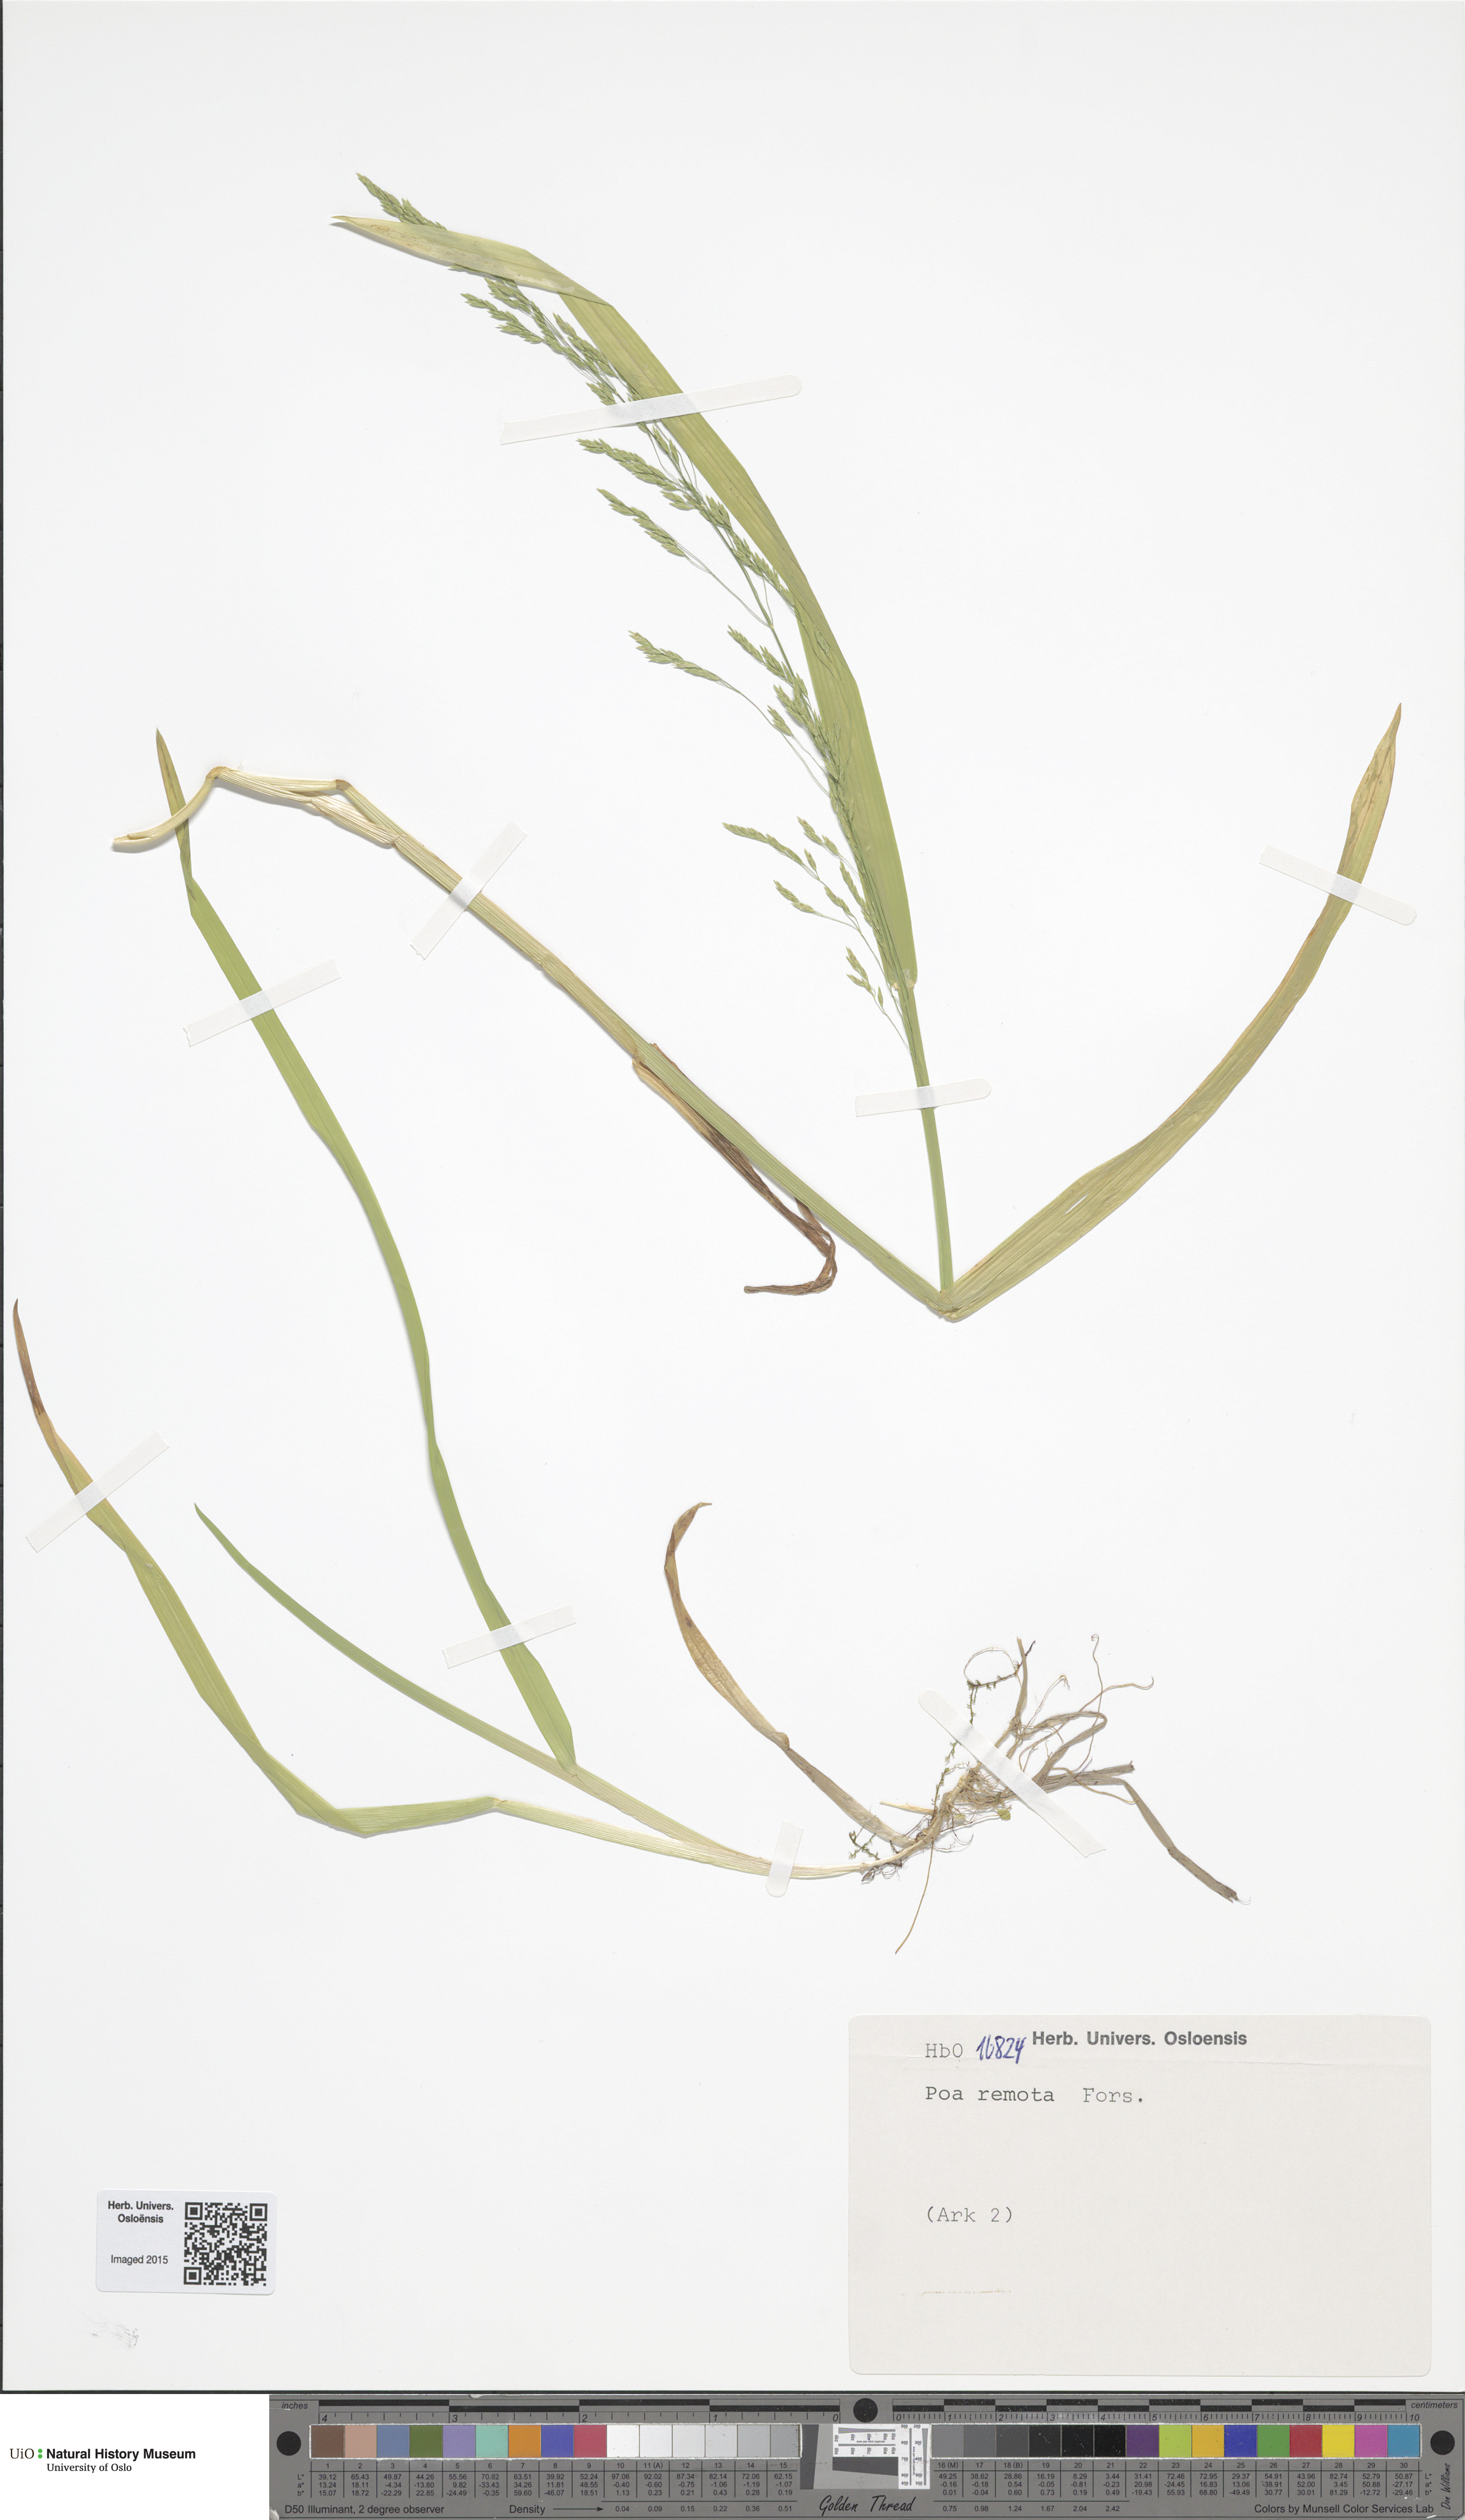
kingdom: Plantae
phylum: Tracheophyta
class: Liliopsida
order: Poales
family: Poaceae
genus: Poa
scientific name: Poa remota
